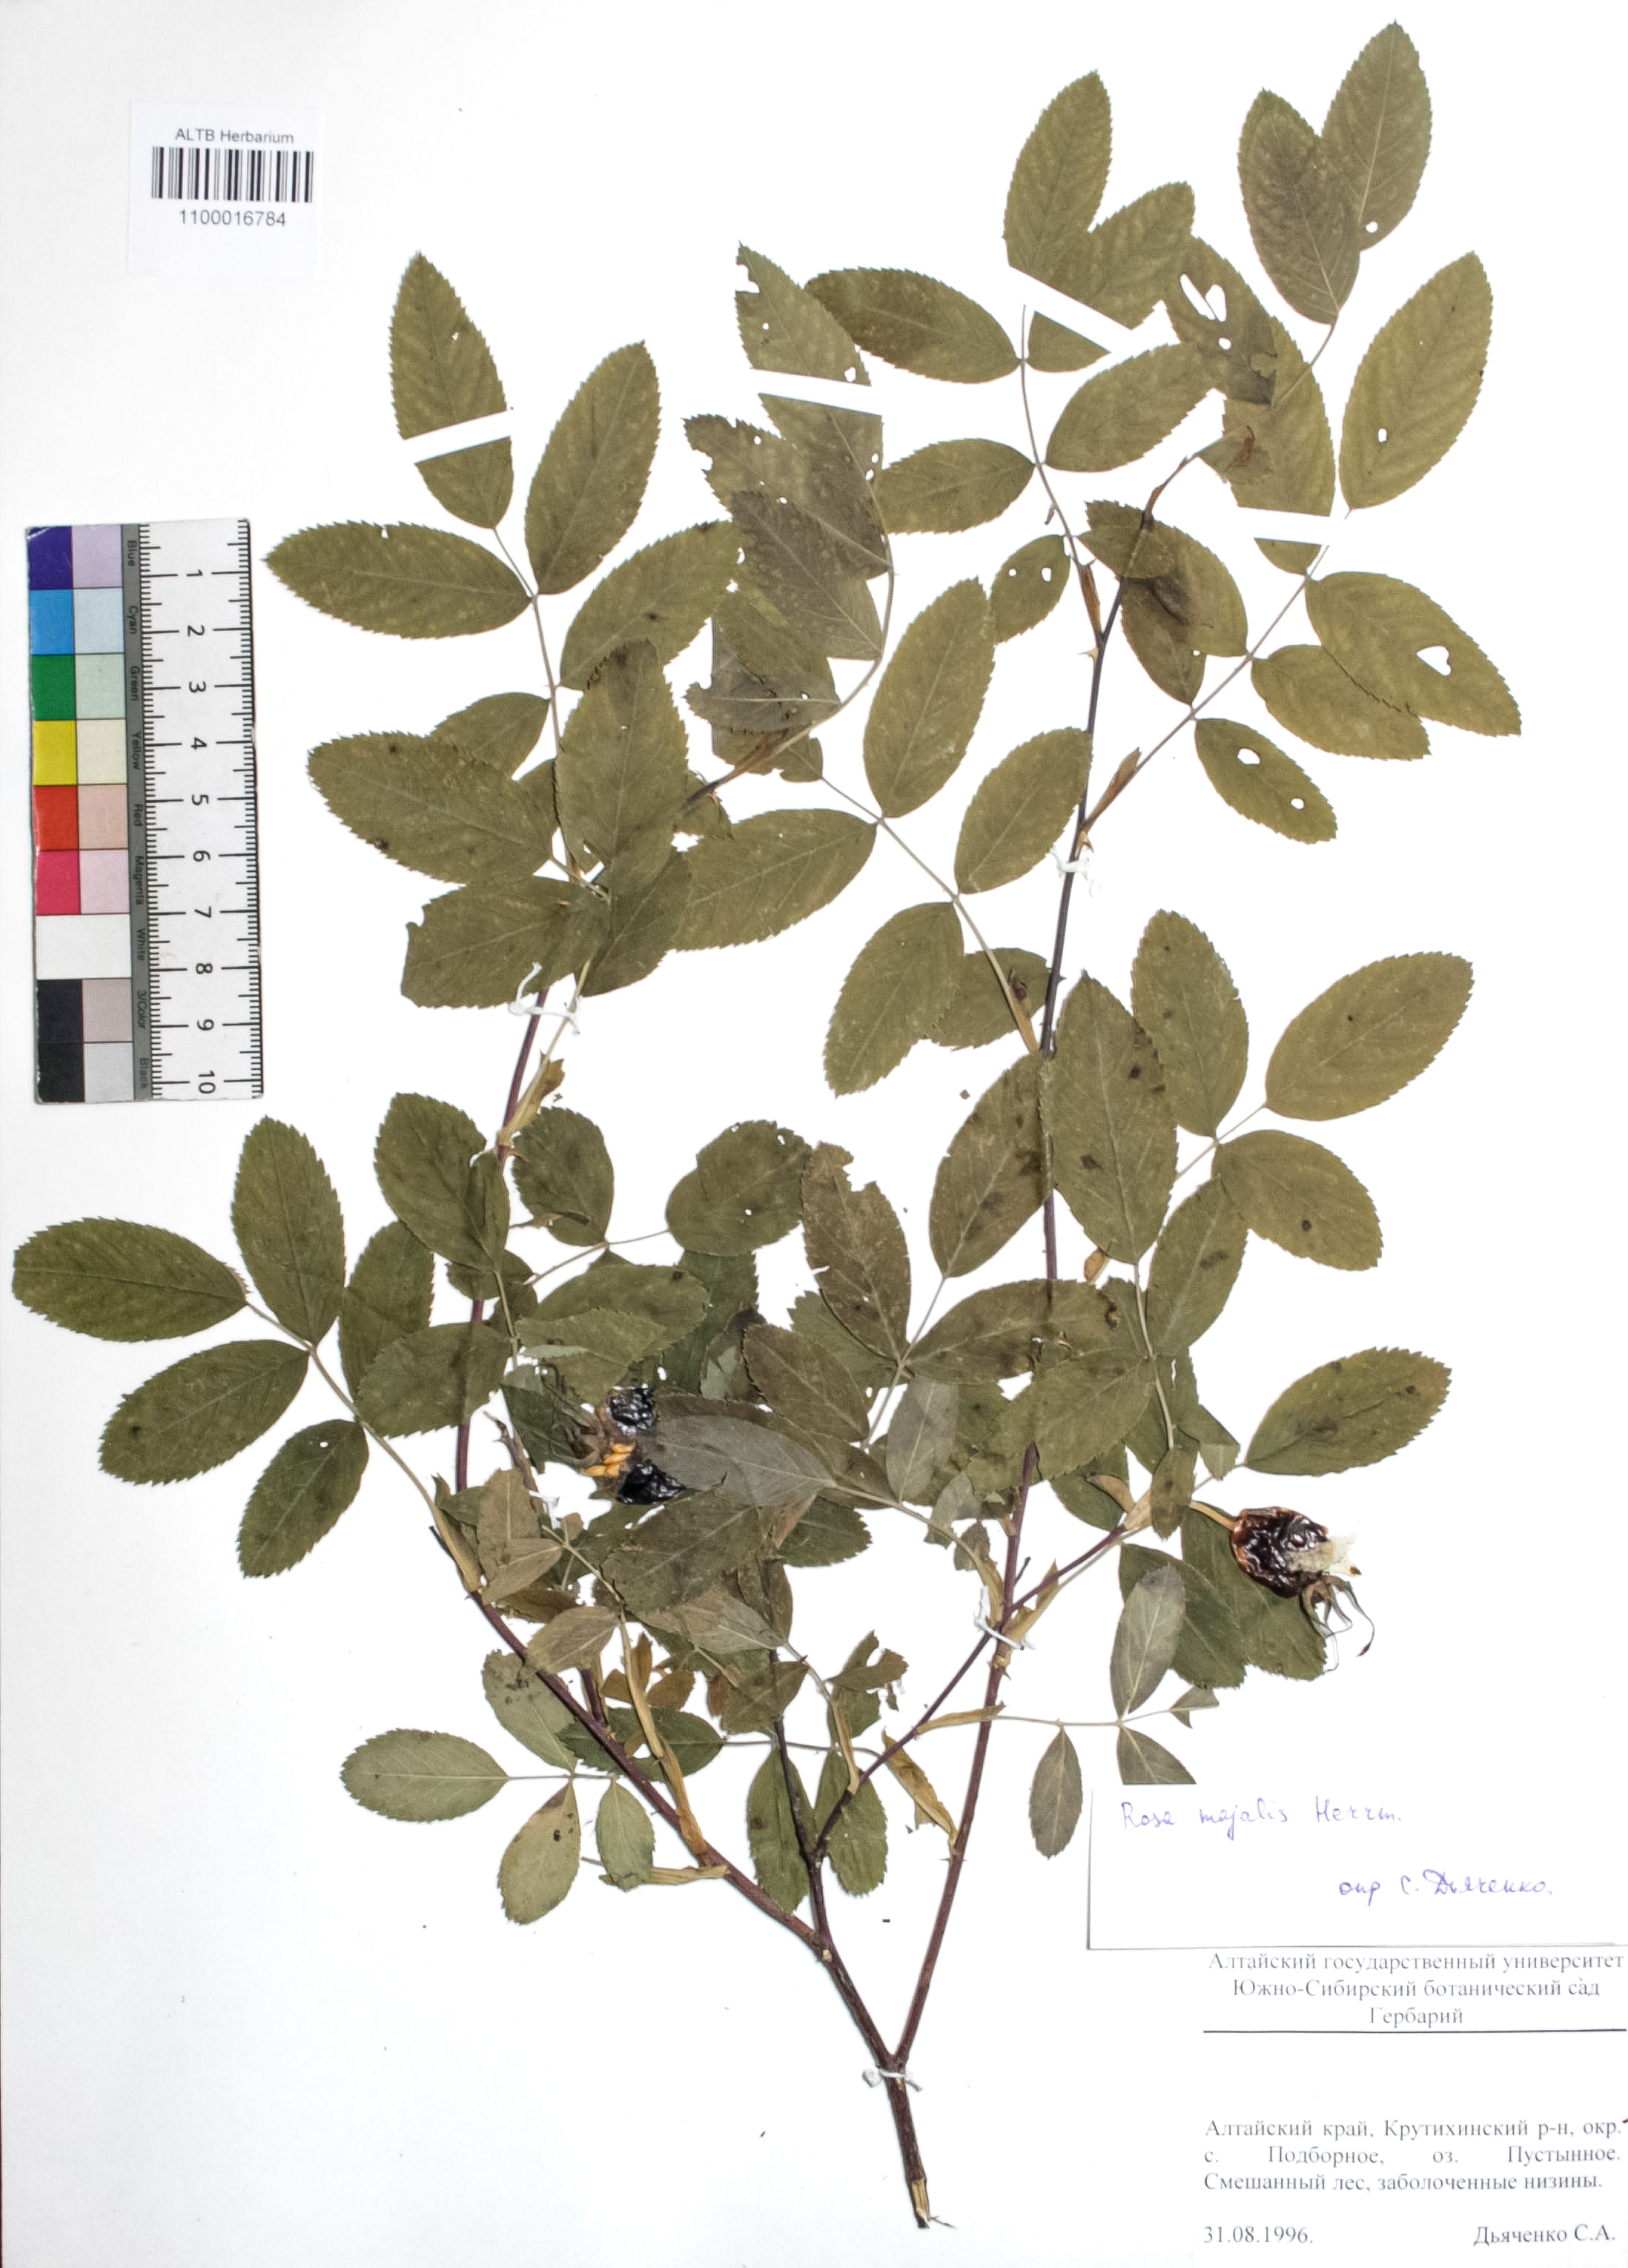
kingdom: Plantae
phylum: Tracheophyta
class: Magnoliopsida
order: Rosales
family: Rosaceae
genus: Rosa
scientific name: Rosa majalis
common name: Cinnamon rose
